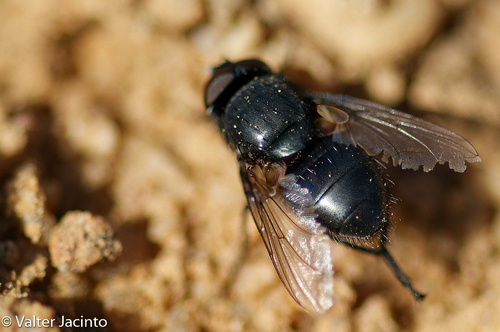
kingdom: Animalia
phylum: Arthropoda
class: Insecta
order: Diptera
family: Polleniidae
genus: Pollenia
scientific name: Pollenia leclercqiana
